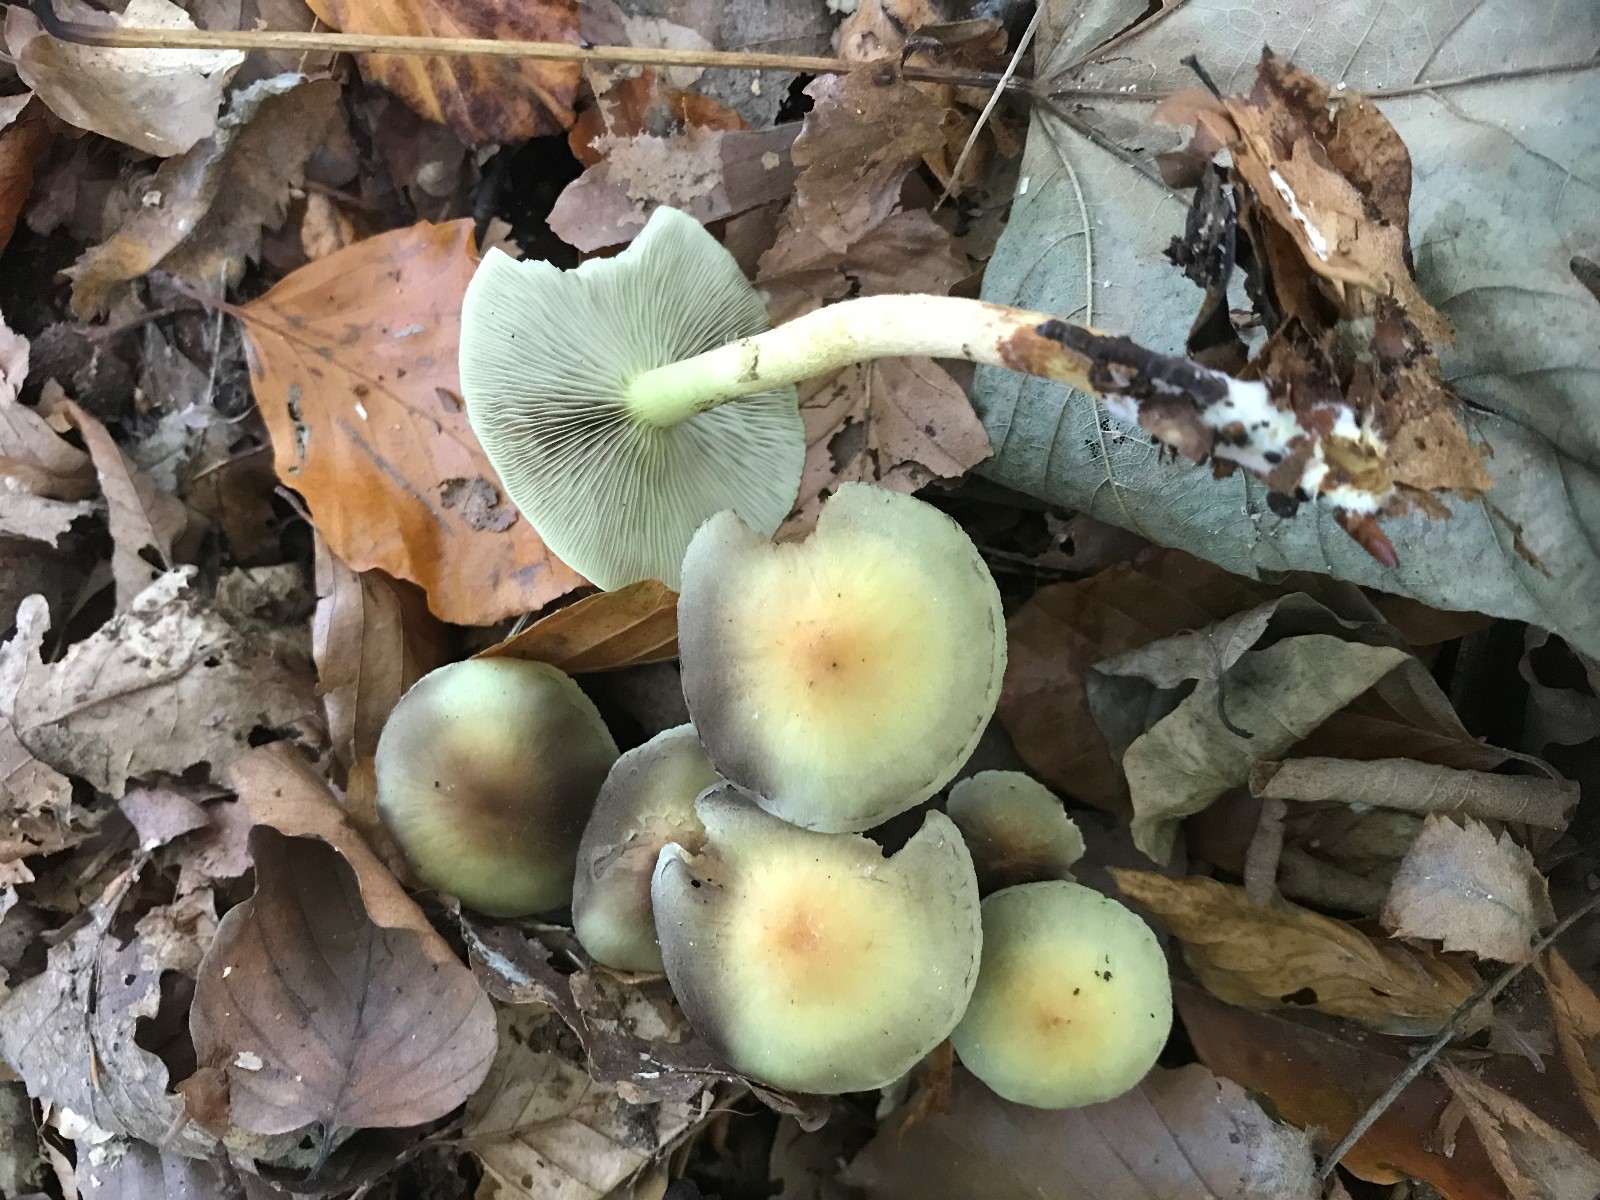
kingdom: Fungi
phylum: Basidiomycota
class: Agaricomycetes
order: Agaricales
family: Strophariaceae
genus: Hypholoma
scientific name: Hypholoma fasciculare
